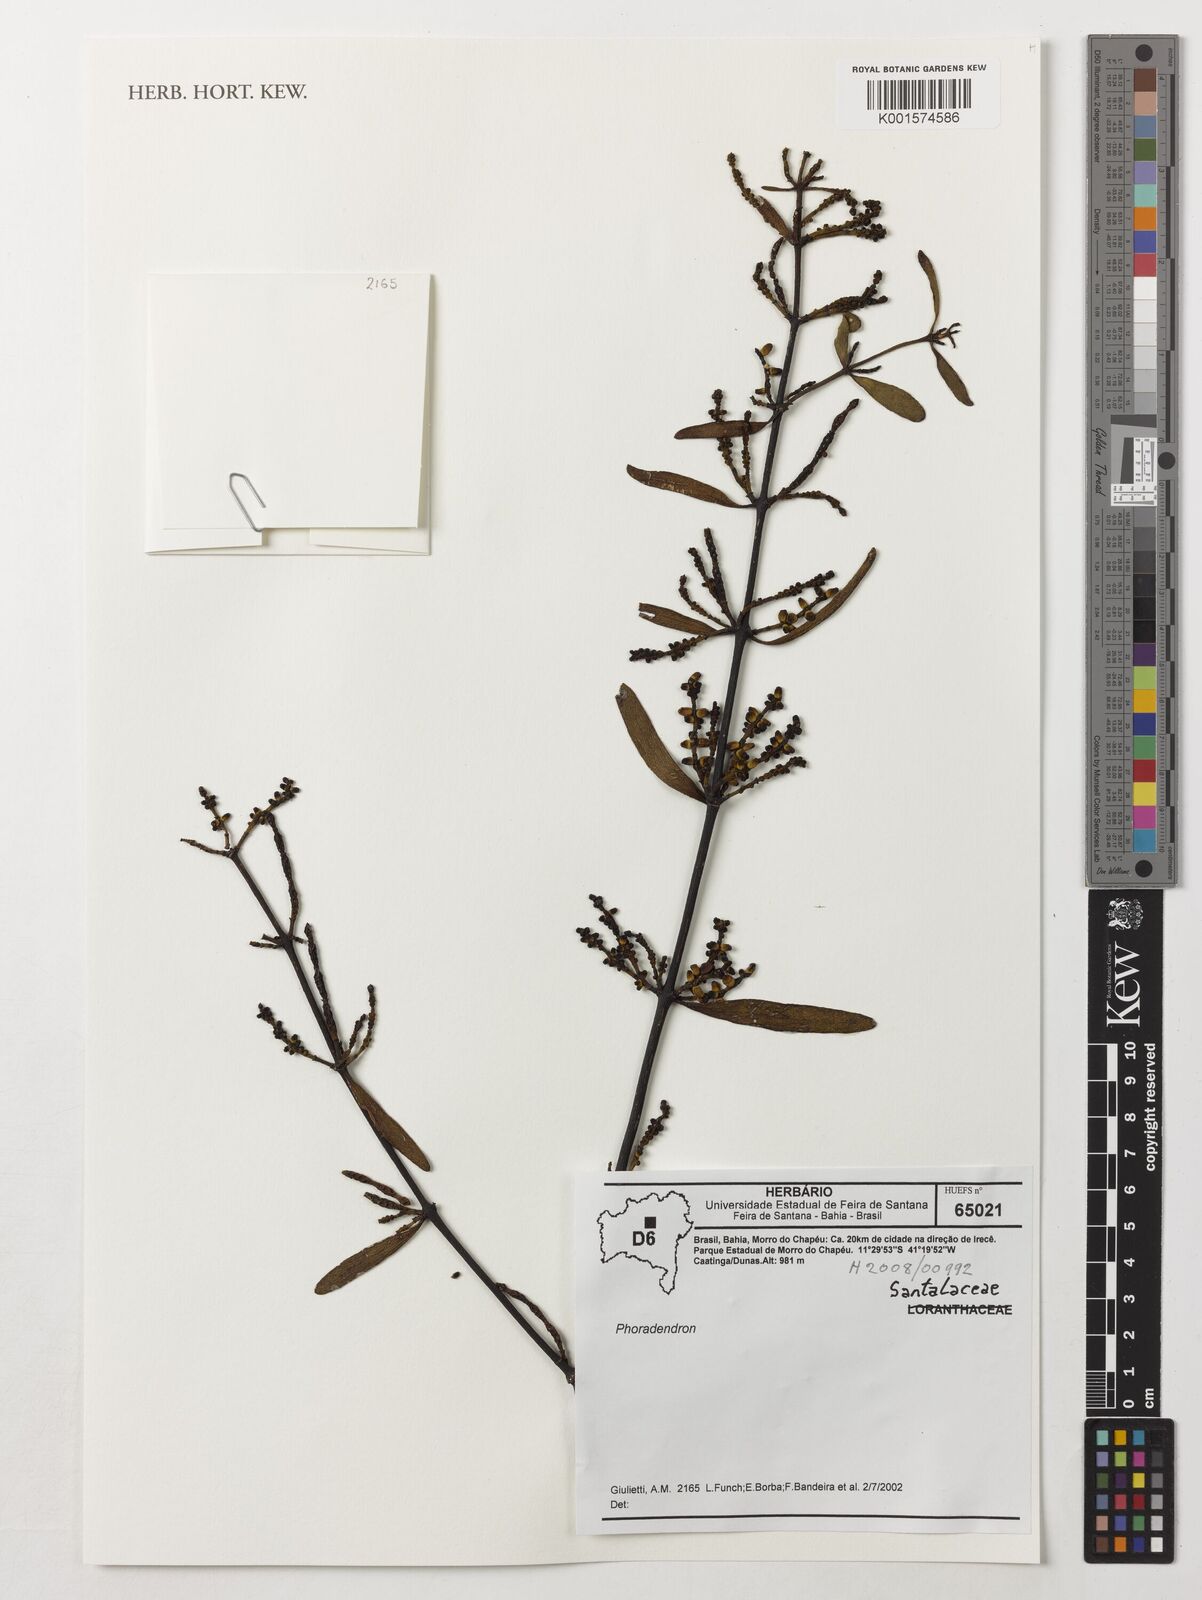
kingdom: Plantae
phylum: Tracheophyta
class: Magnoliopsida
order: Santalales
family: Viscaceae
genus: Phoradendron
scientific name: Phoradendron
